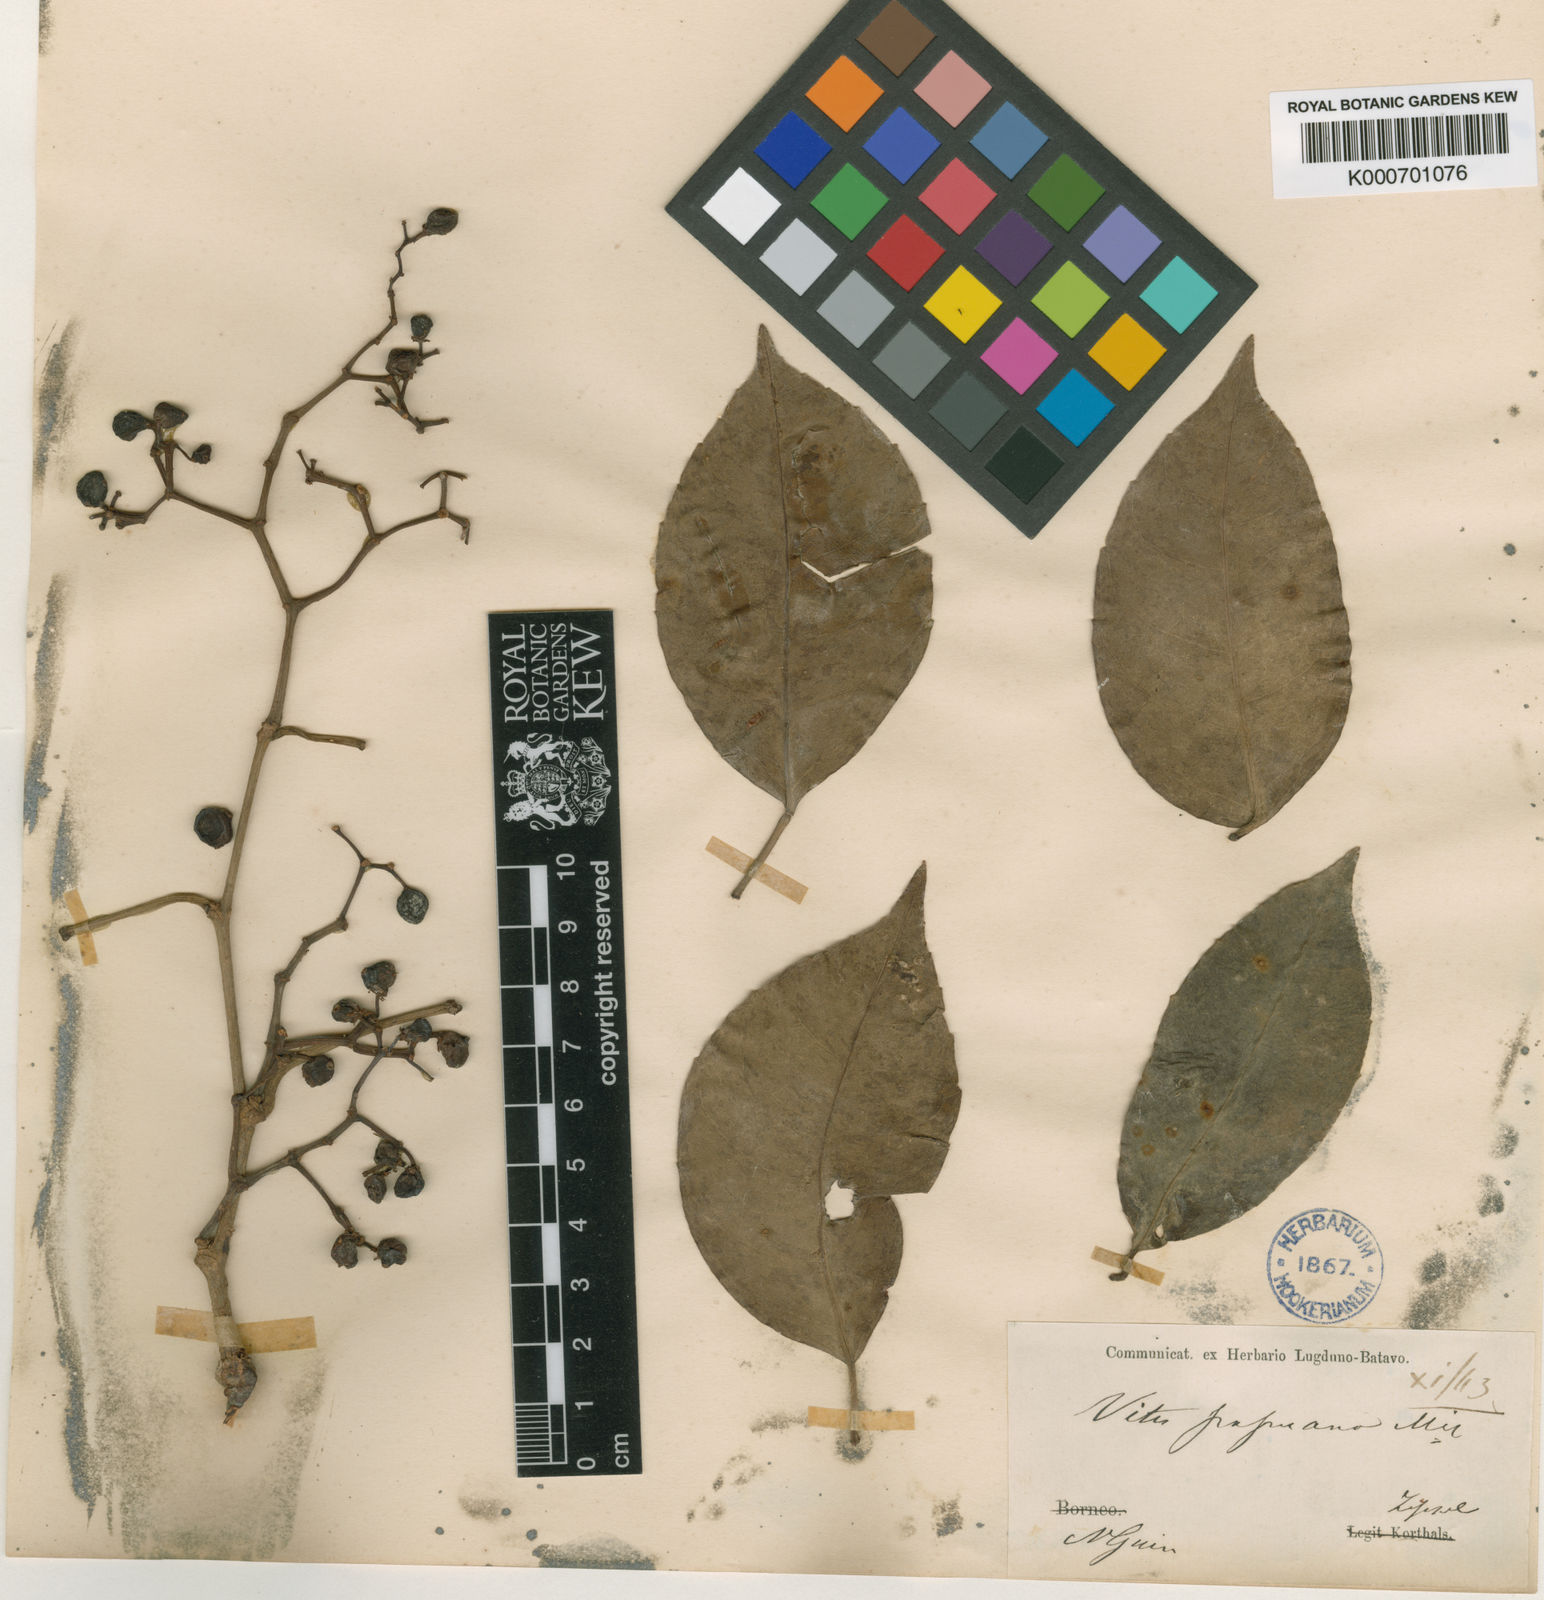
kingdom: Plantae
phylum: Tracheophyta
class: Magnoliopsida
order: Vitales
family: Vitaceae
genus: Tetrastigma
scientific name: Tetrastigma papuanum
